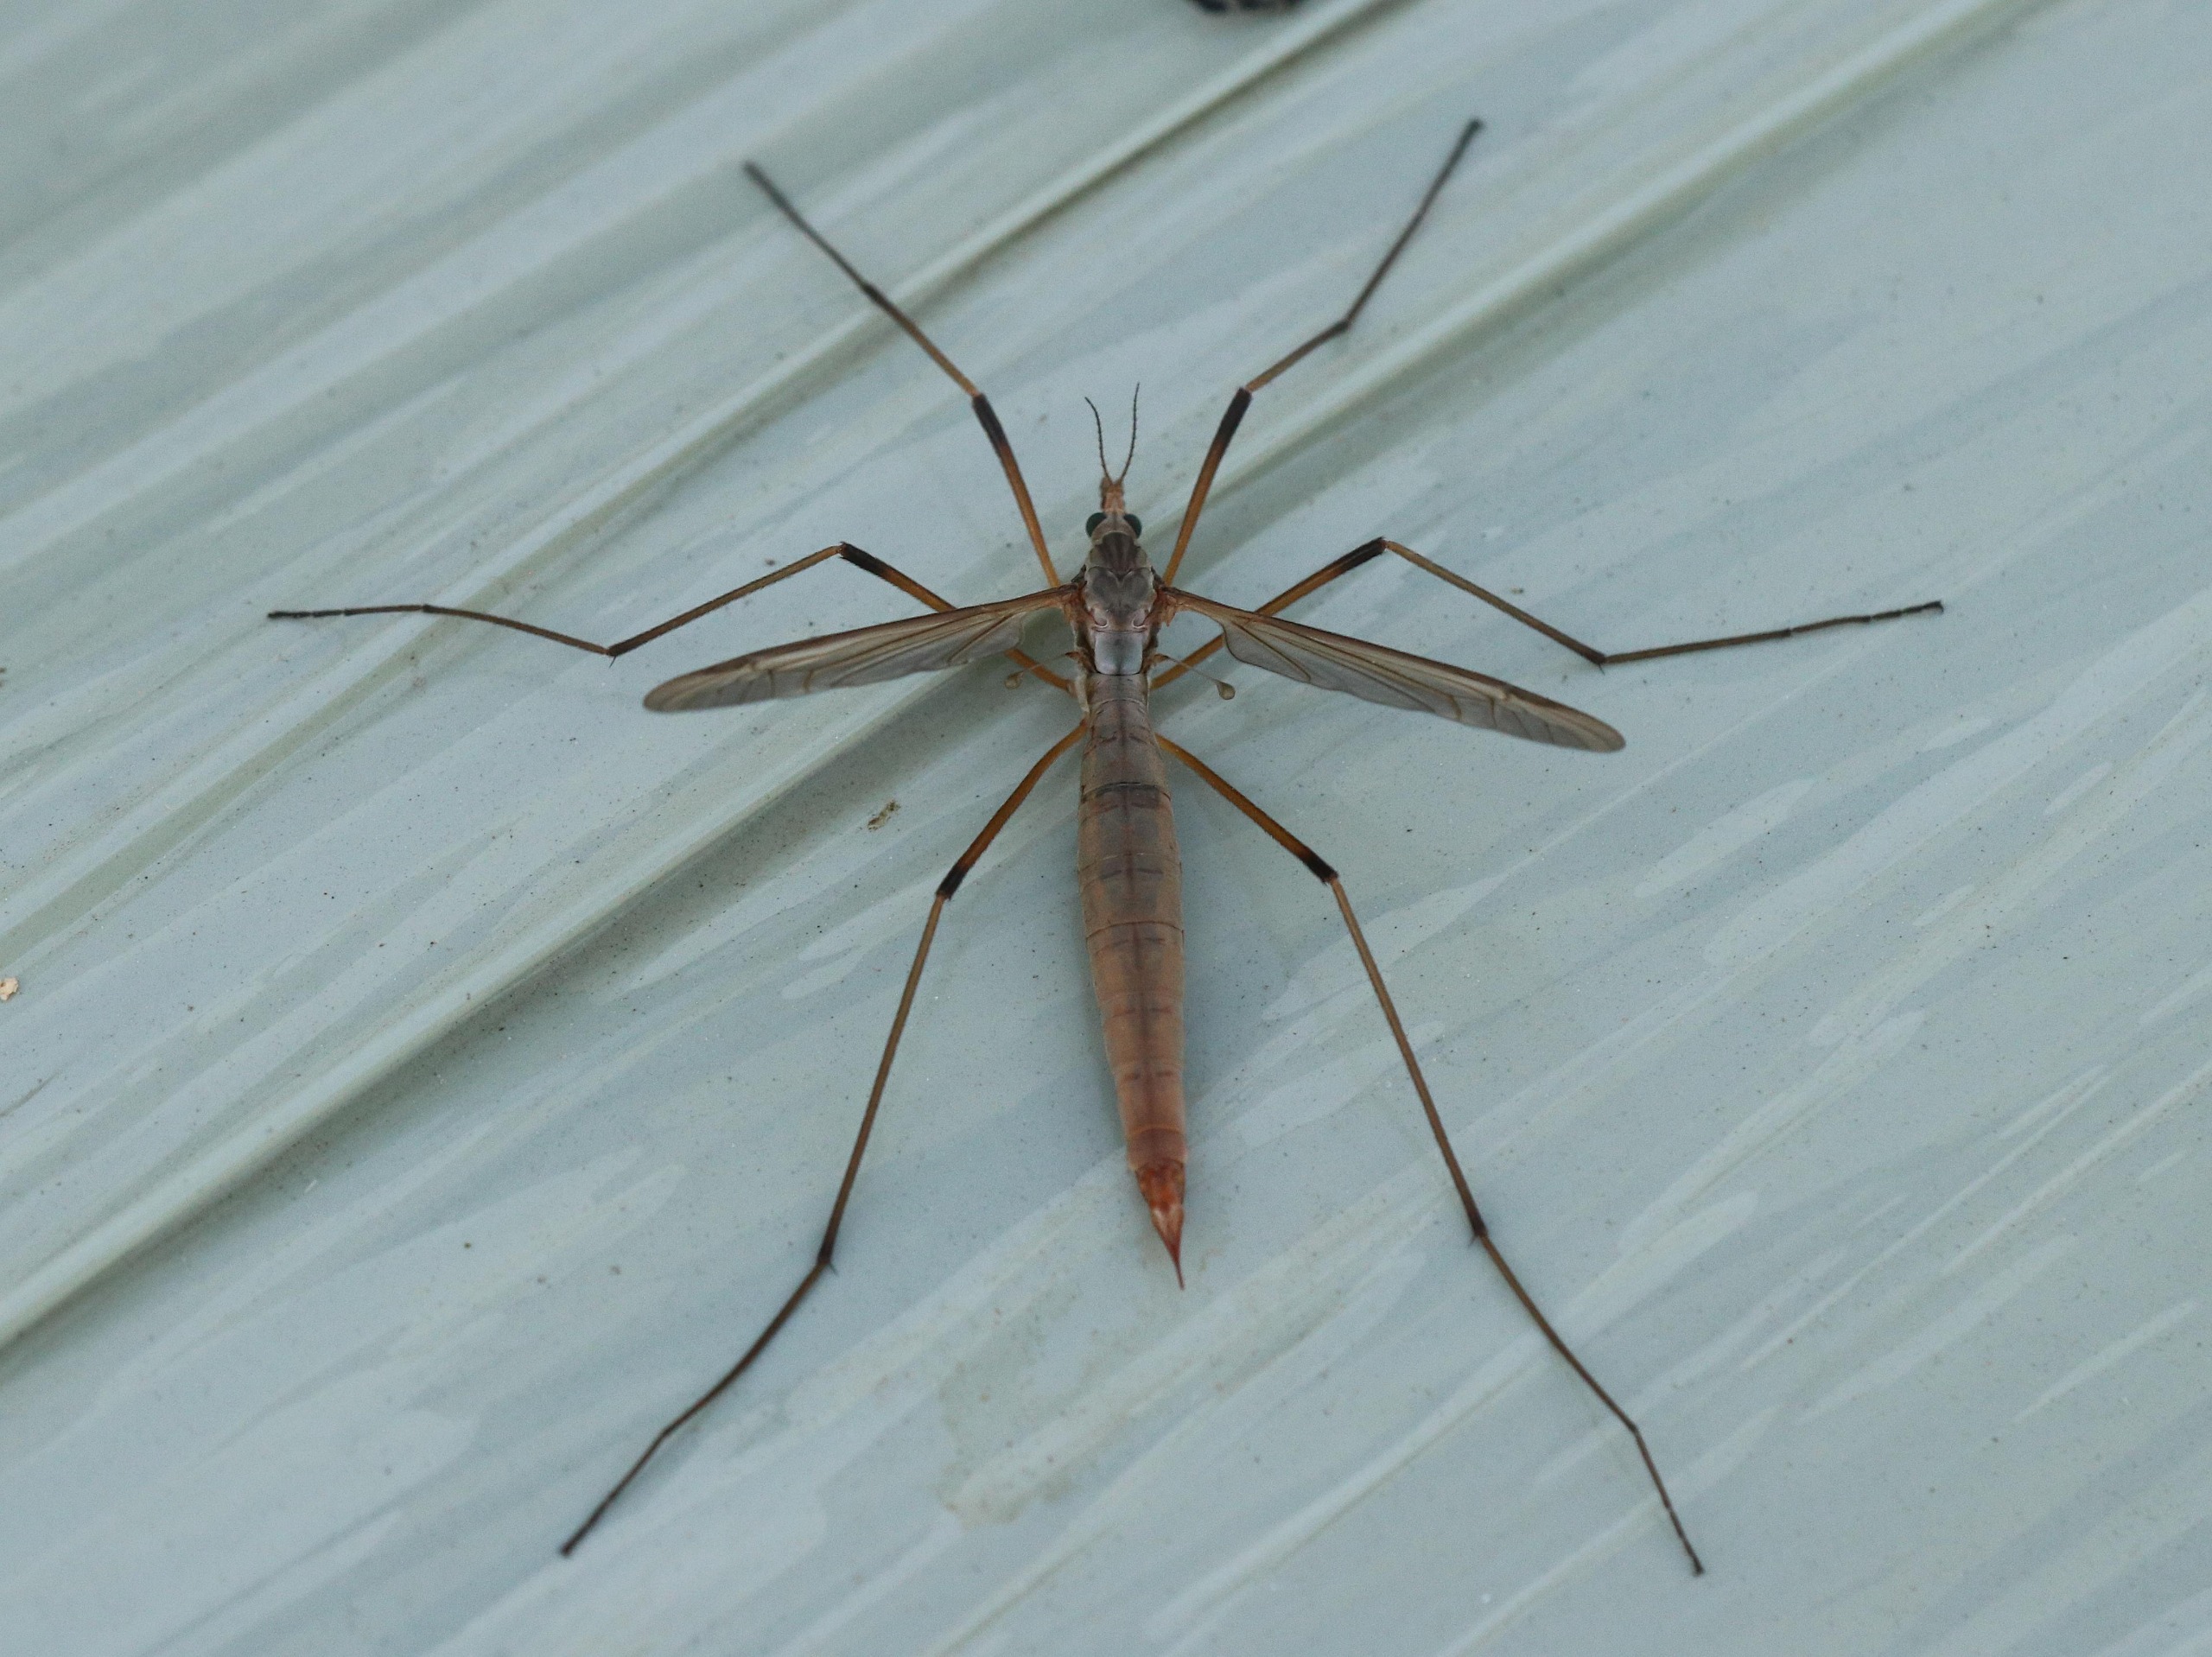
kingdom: Animalia
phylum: Arthropoda
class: Insecta
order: Diptera
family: Tipulidae
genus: Tipula
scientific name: Tipula paludosa
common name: Mosestankelben
